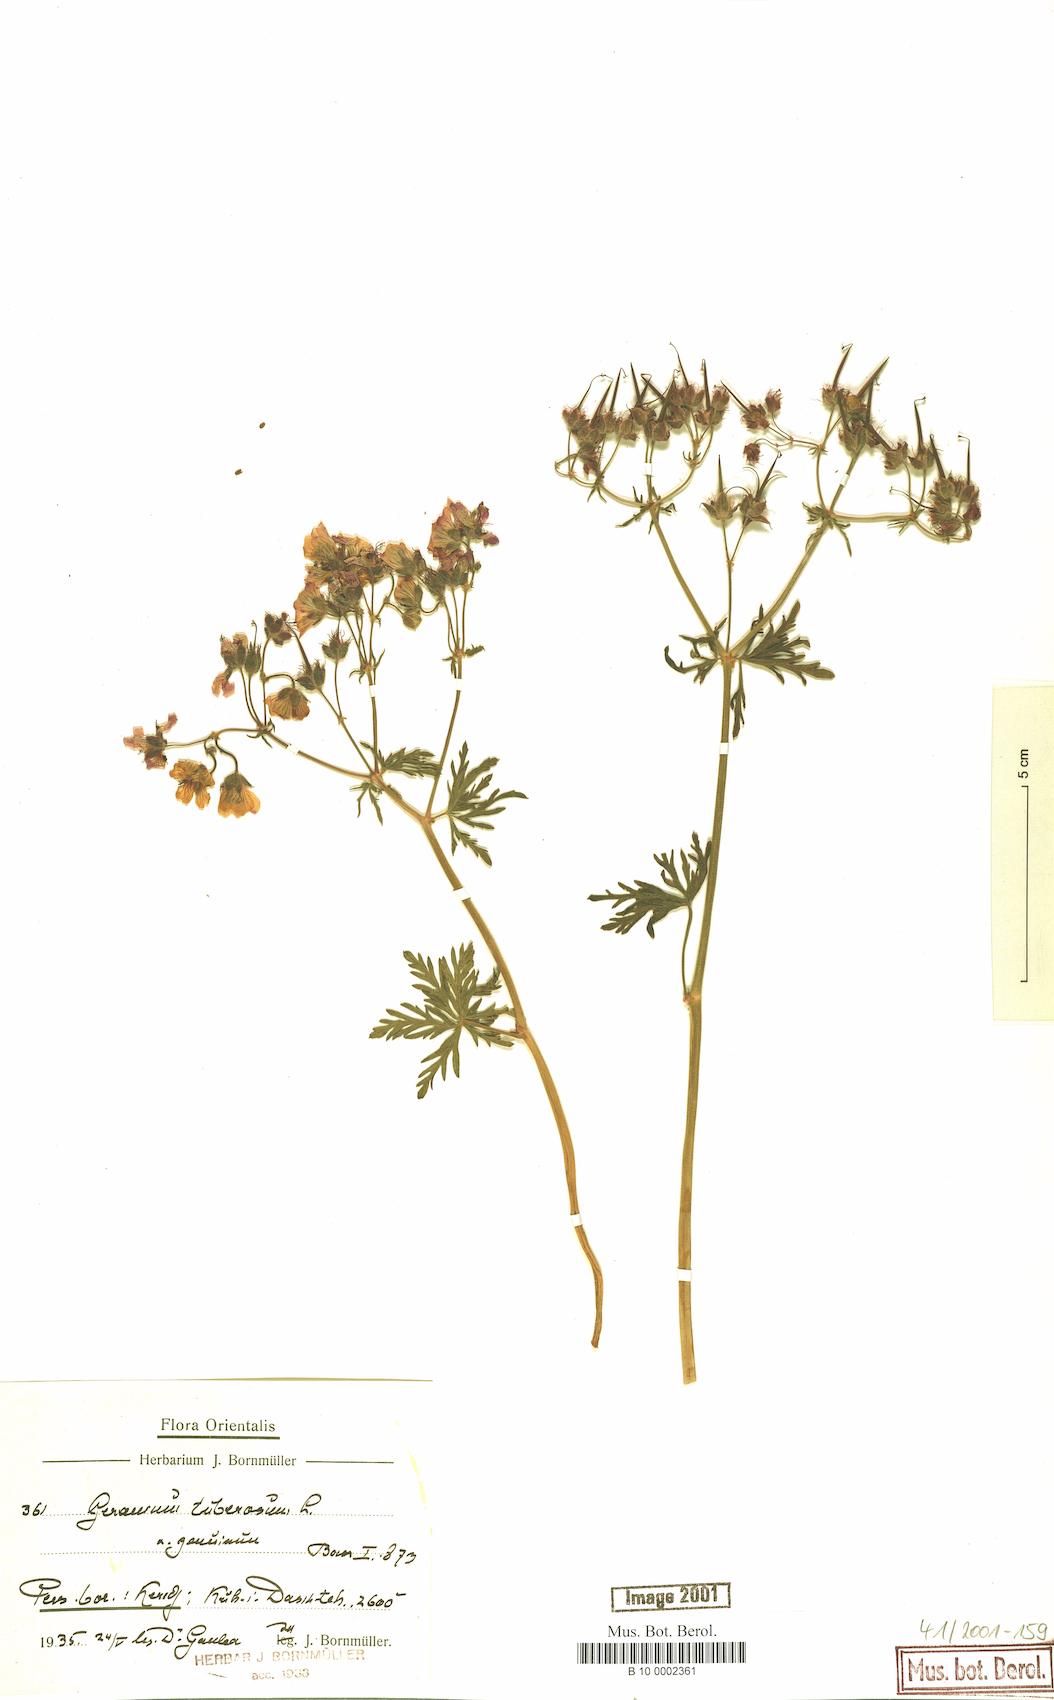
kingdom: Plantae
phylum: Tracheophyta
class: Magnoliopsida
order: Geraniales
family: Geraniaceae
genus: Geranium
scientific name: Geranium tuberosum
